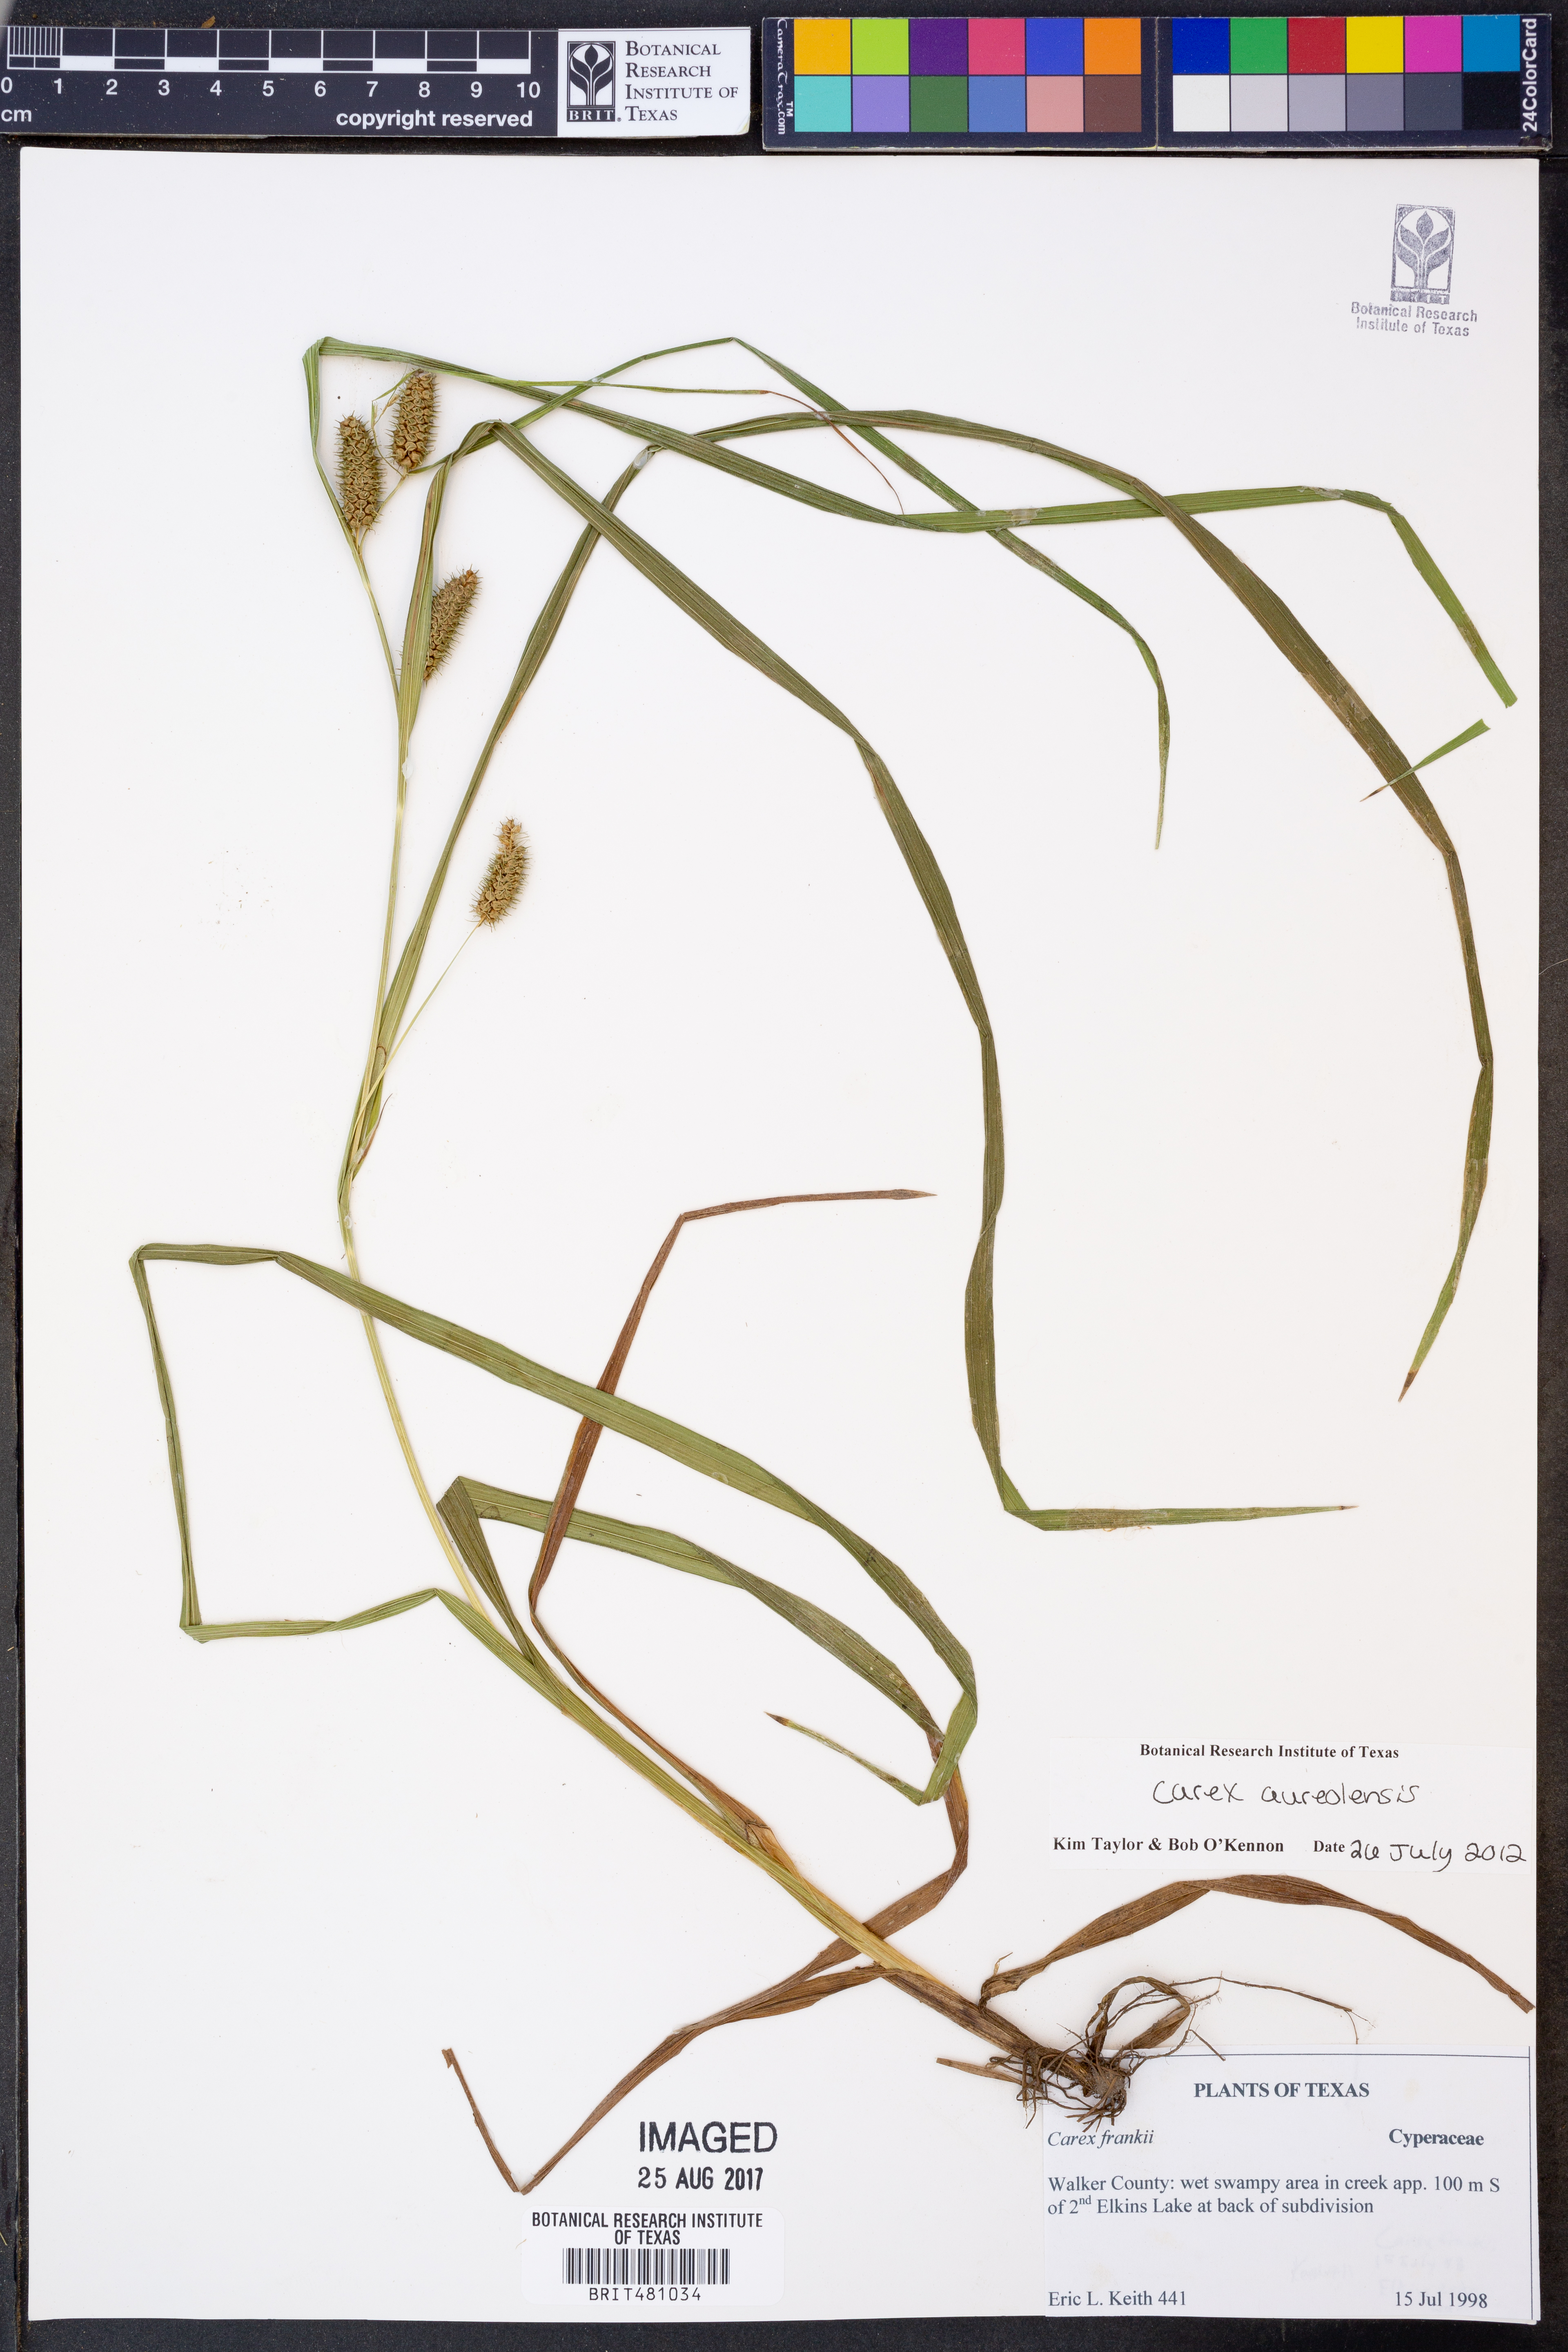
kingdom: Plantae
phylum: Tracheophyta
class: Liliopsida
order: Poales
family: Cyperaceae
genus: Carex
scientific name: Carex aureolensis
